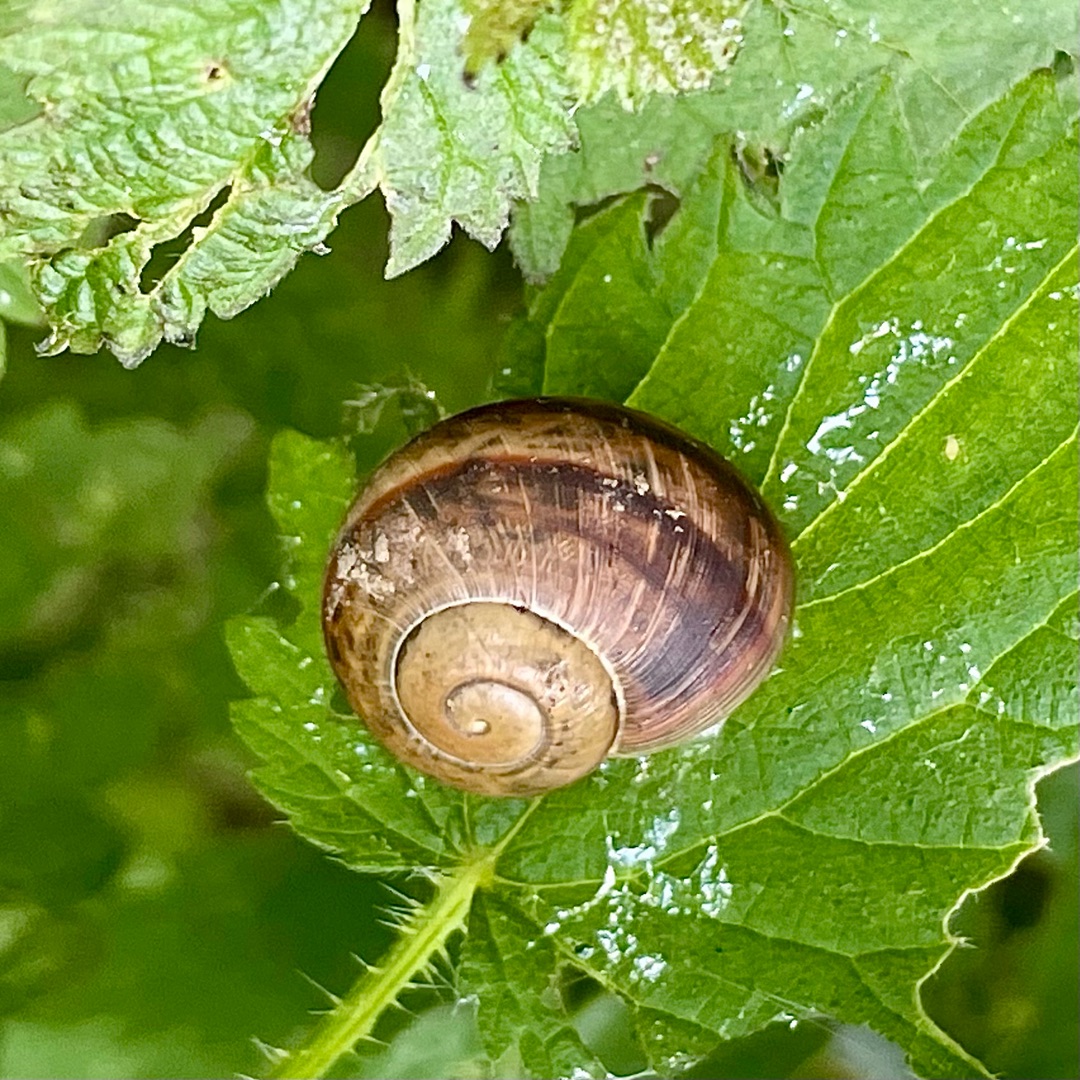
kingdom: Animalia
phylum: Mollusca
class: Gastropoda
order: Stylommatophora
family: Helicidae
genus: Helix
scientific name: Helix pomatia
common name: Vinbjergsnegl
